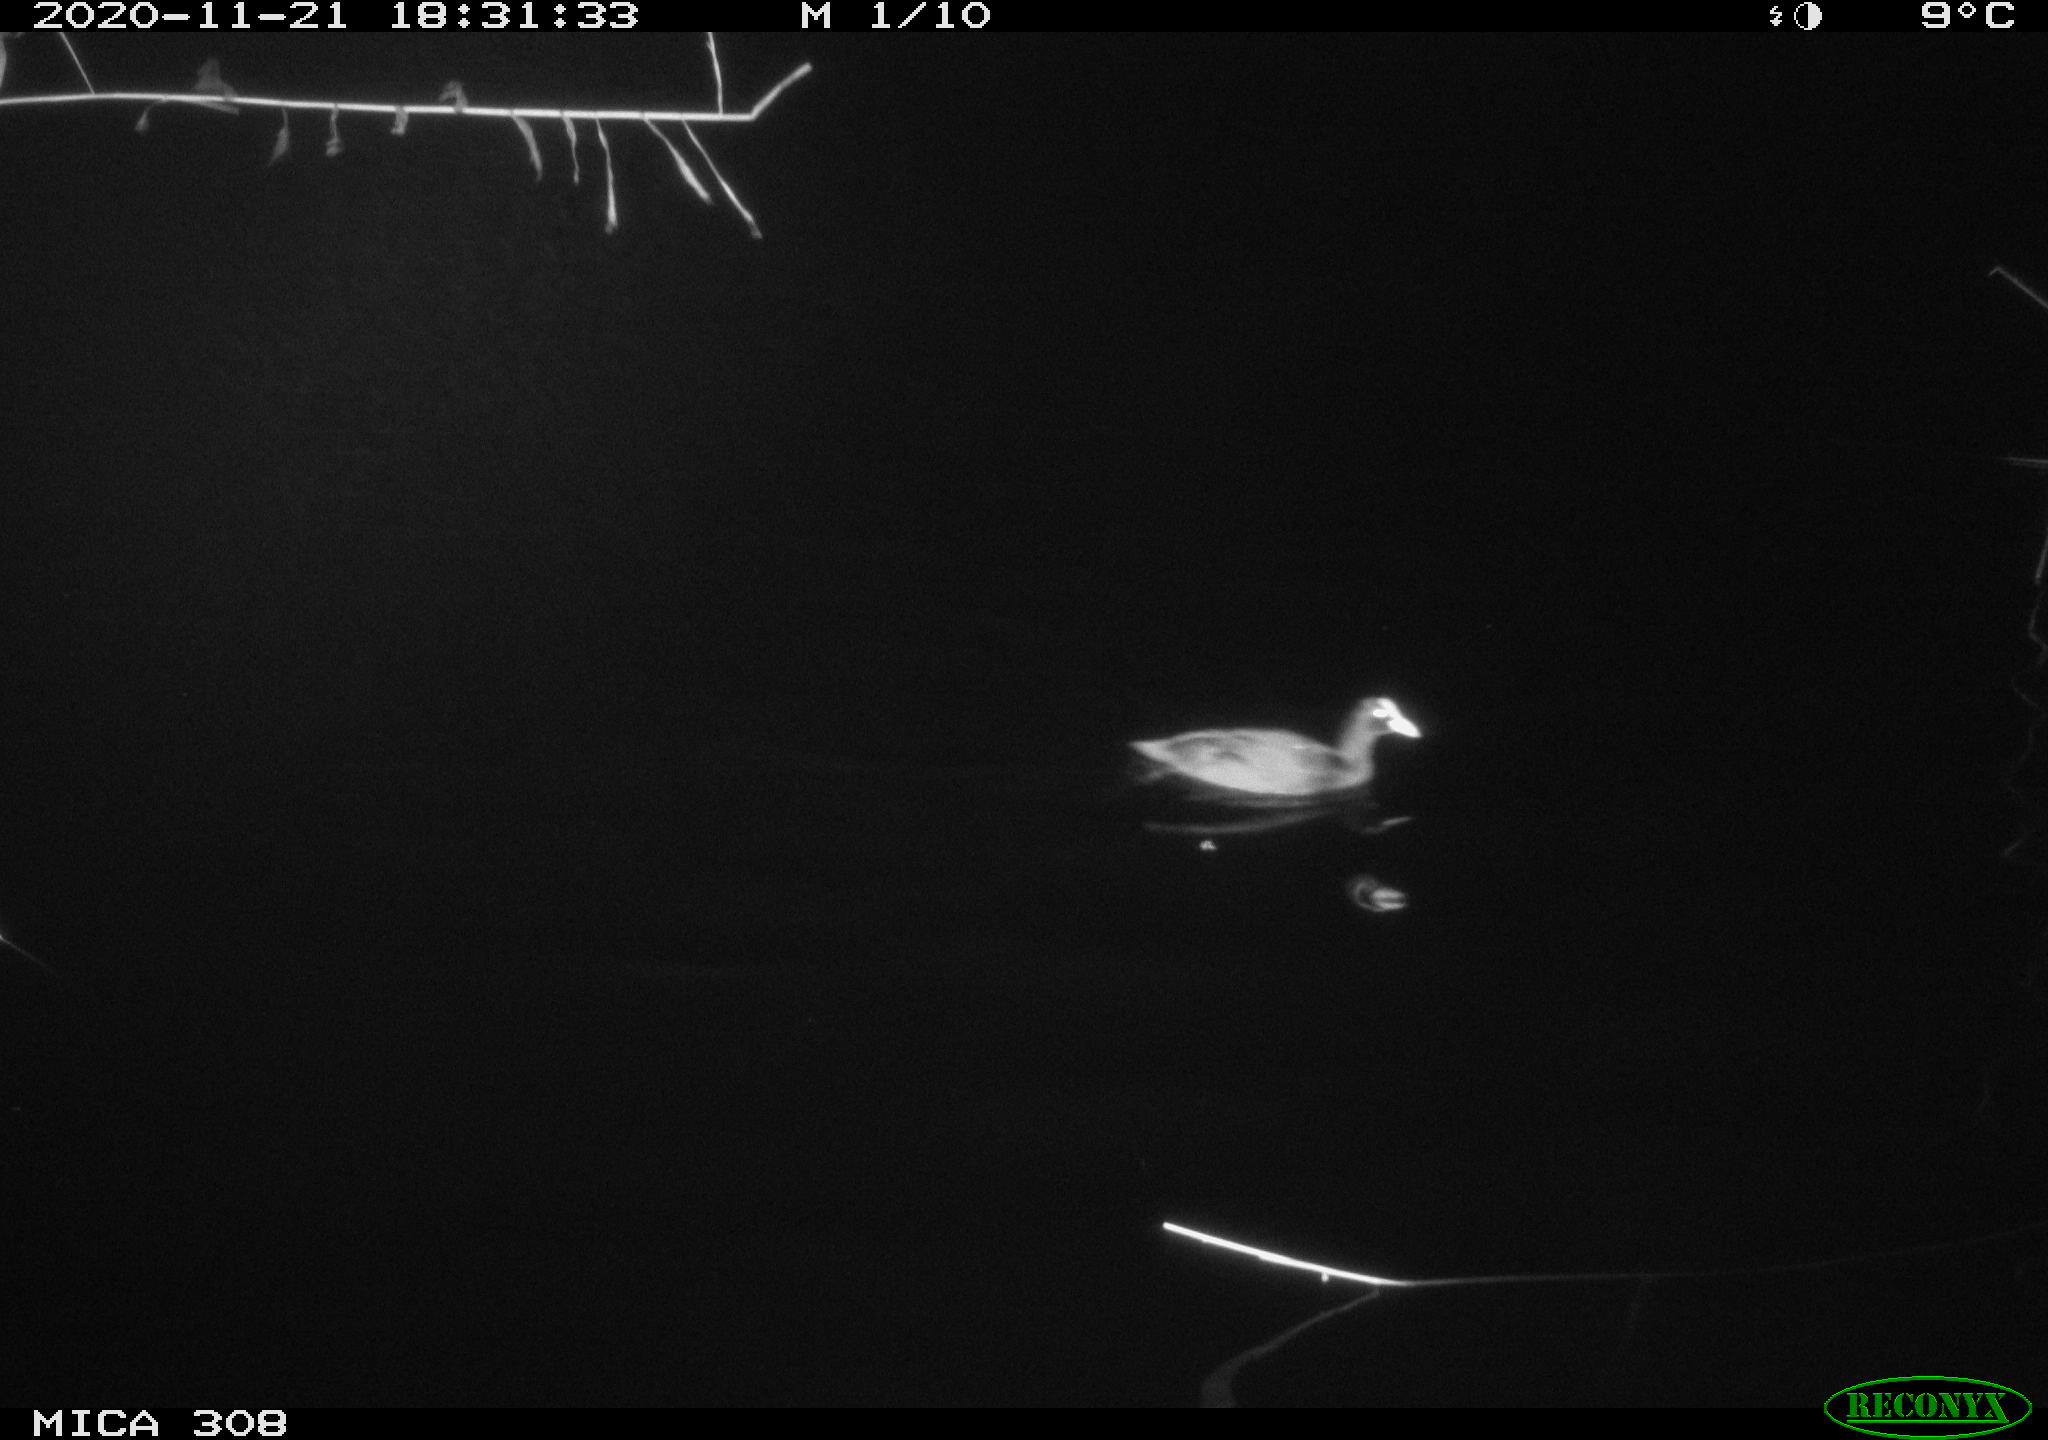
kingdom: Animalia
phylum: Chordata
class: Aves
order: Gruiformes
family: Rallidae
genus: Fulica
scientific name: Fulica atra
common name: Eurasian coot
